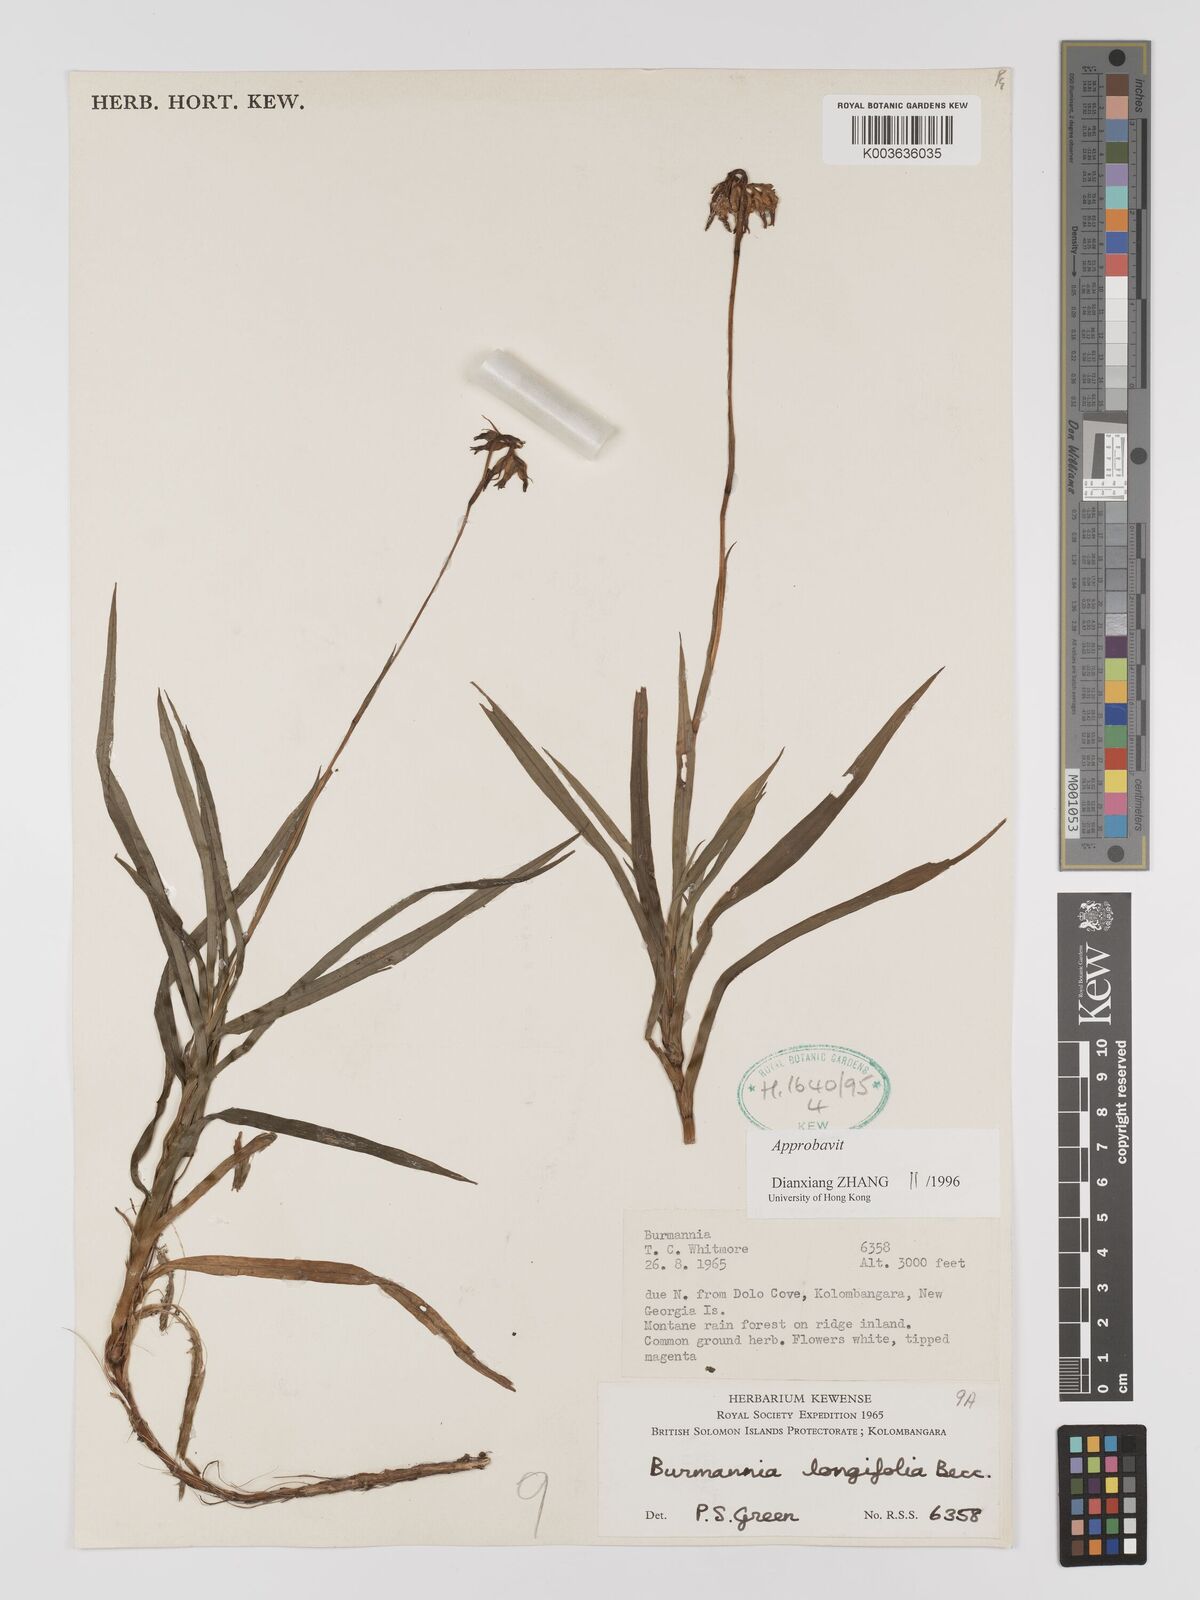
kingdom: Plantae
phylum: Tracheophyta
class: Liliopsida
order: Dioscoreales
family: Burmanniaceae
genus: Burmannia
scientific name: Burmannia longifolia
